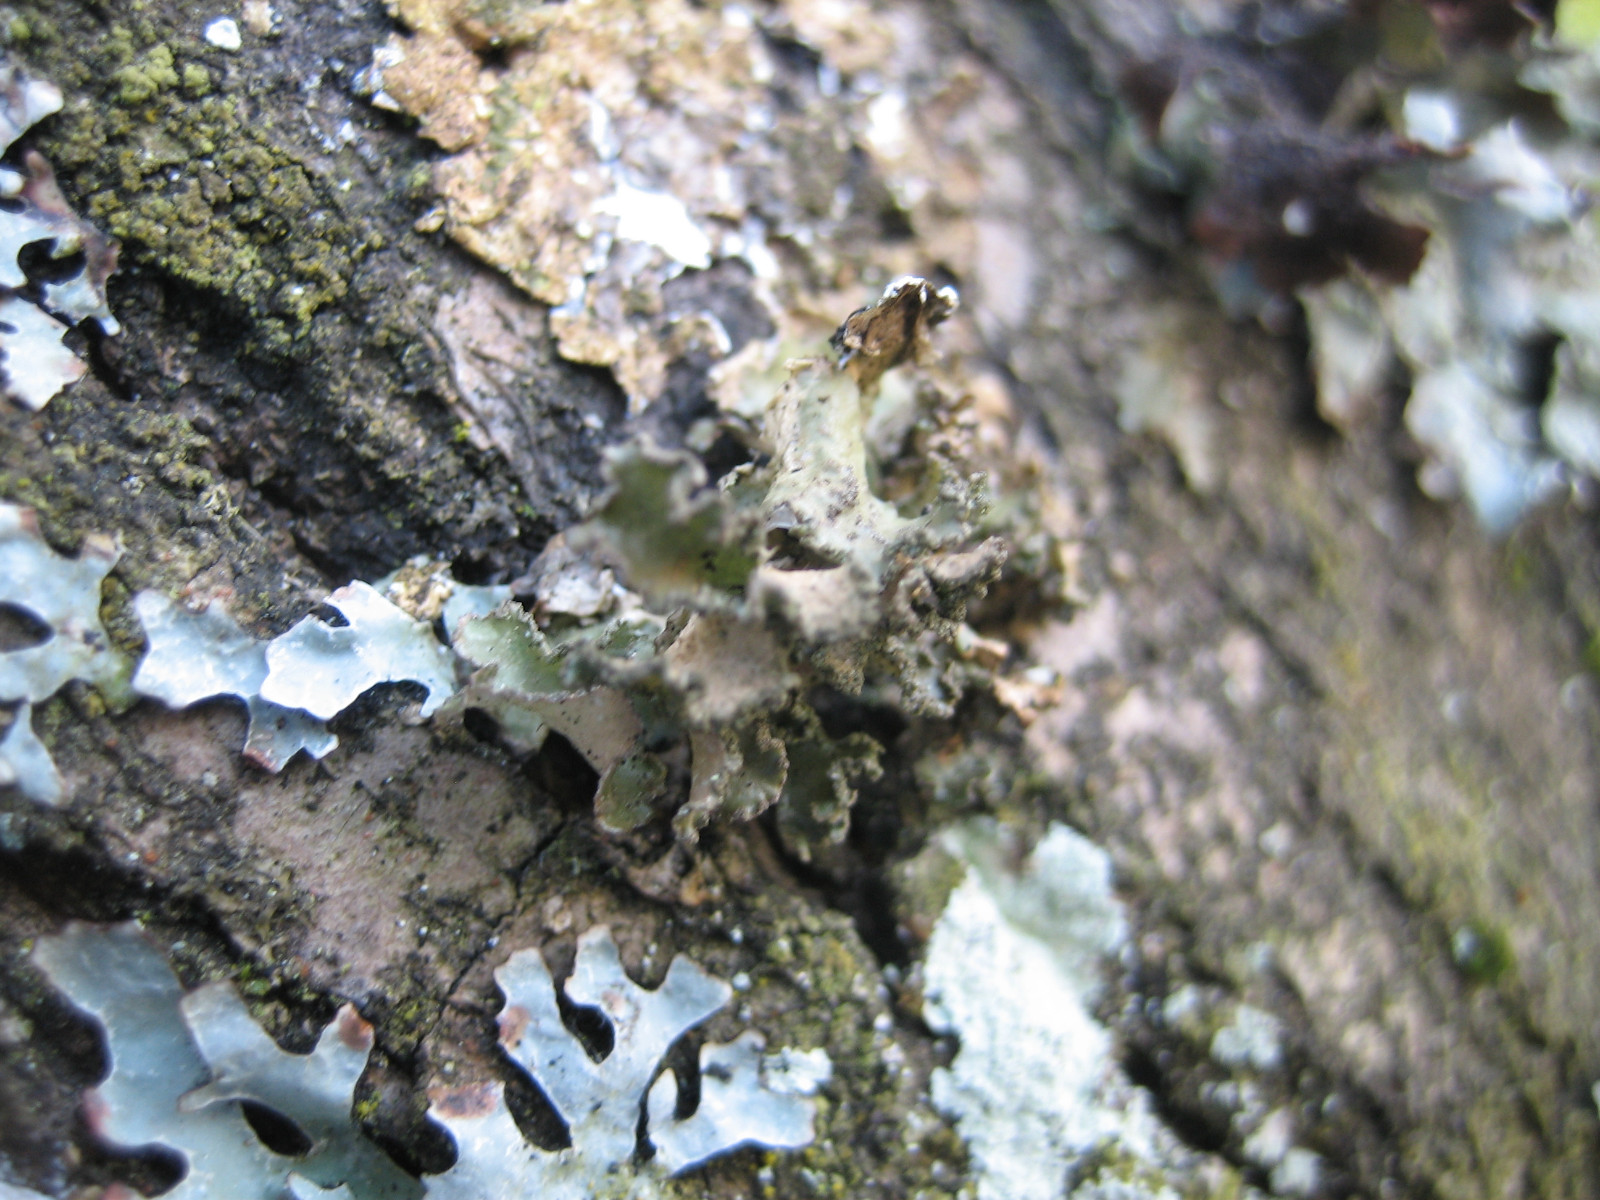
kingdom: Fungi
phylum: Ascomycota
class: Lecanoromycetes
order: Lecanorales
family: Parmeliaceae
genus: Nephromopsis
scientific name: Nephromopsis chlorophylla
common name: olivenbrun kruslav
